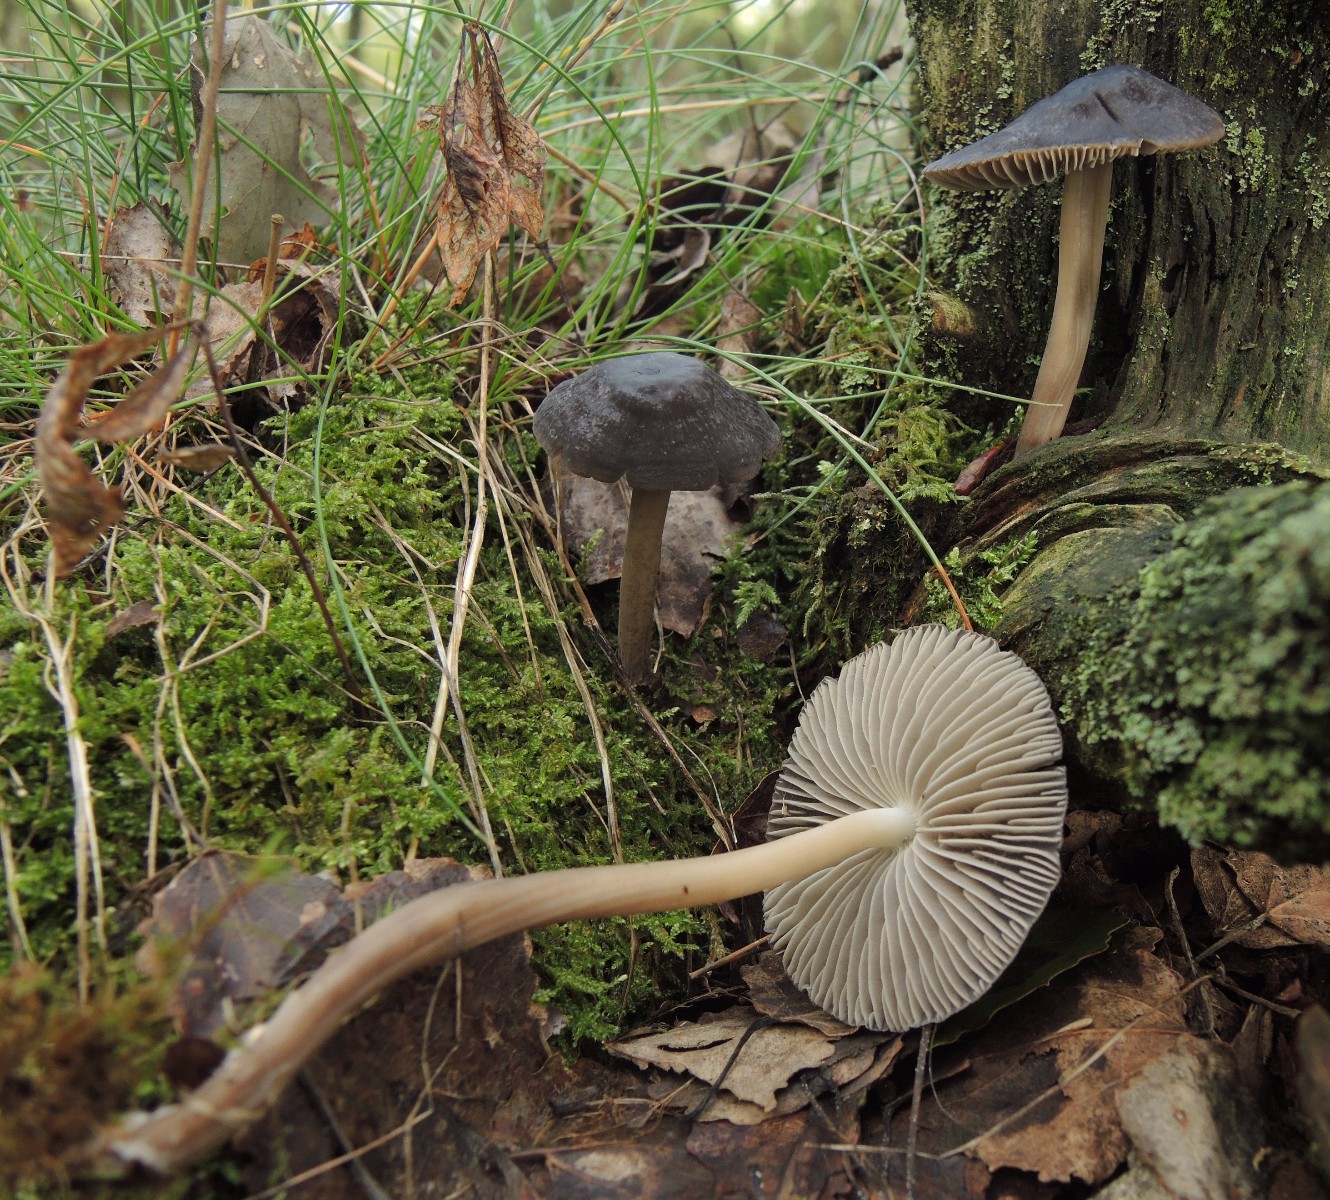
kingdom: Fungi
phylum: Basidiomycota
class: Agaricomycetes
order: Agaricales
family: Mycenaceae
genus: Mycena
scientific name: Mycena megaspora
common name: brusk-huesvamp
